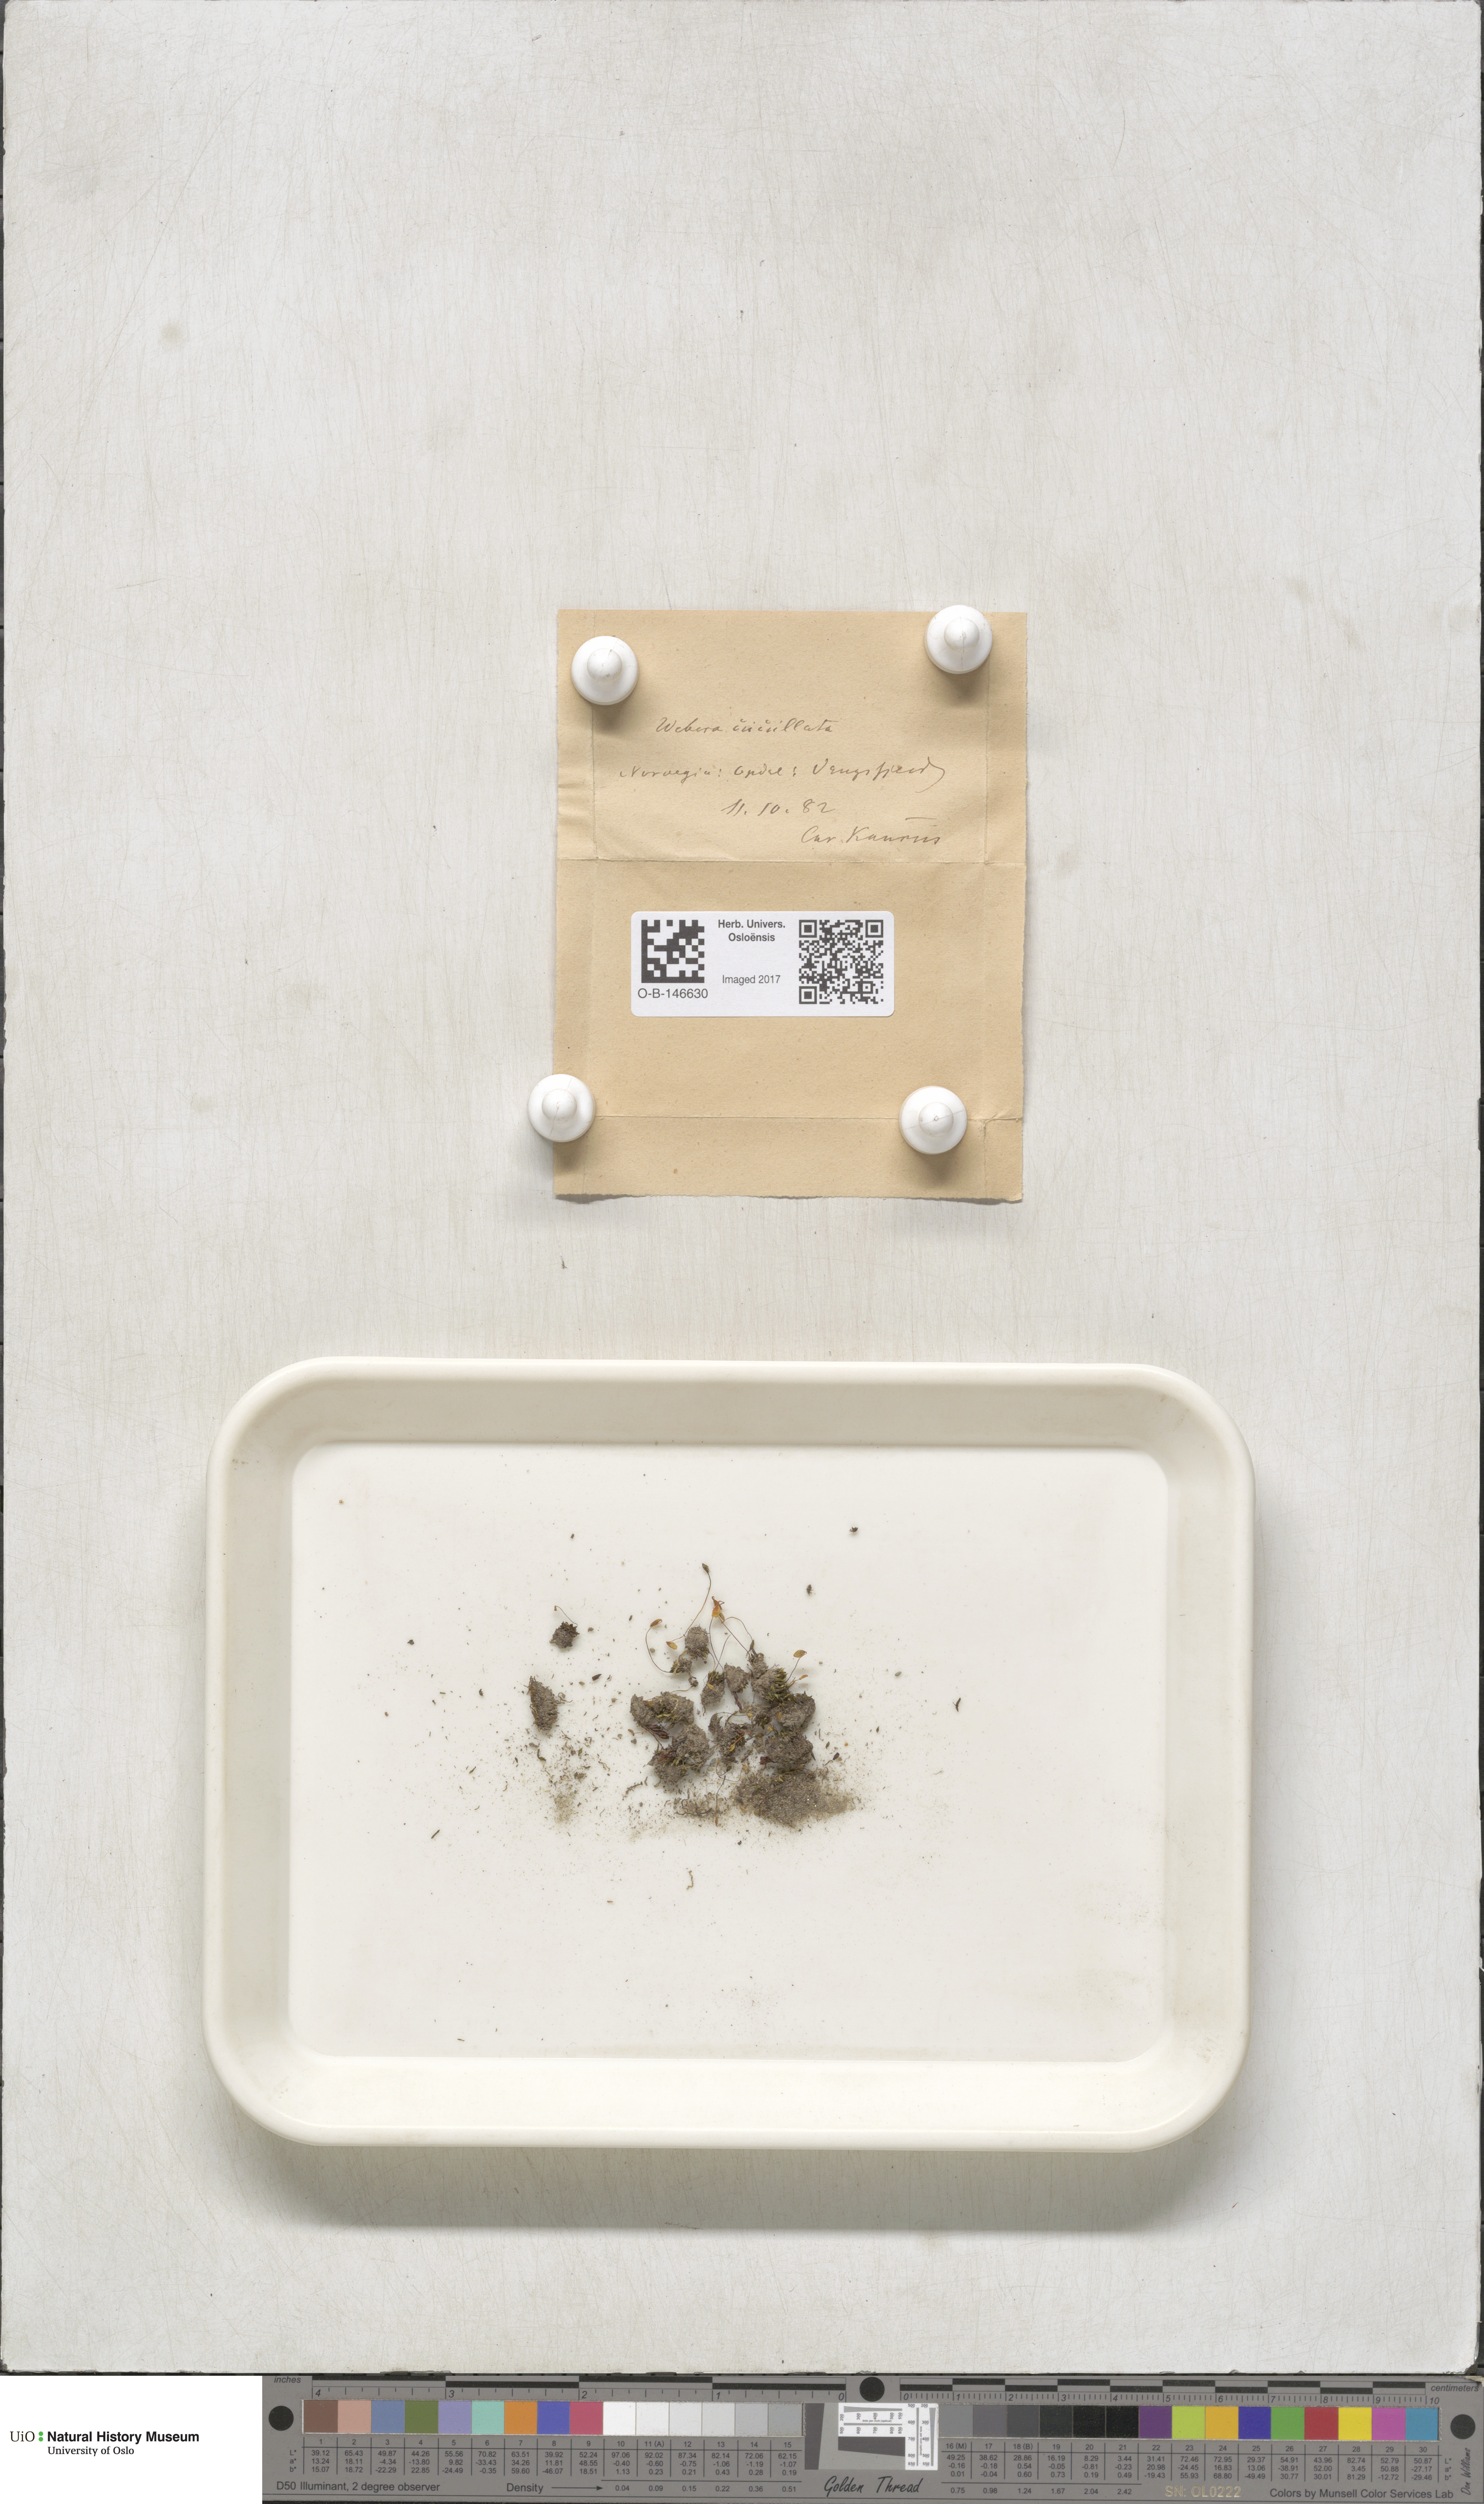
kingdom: Plantae
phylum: Bryophyta
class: Bryopsida
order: Bryales
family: Mniaceae
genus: Pohlia
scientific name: Pohlia obtusifolia
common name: Blunt nodding moss
